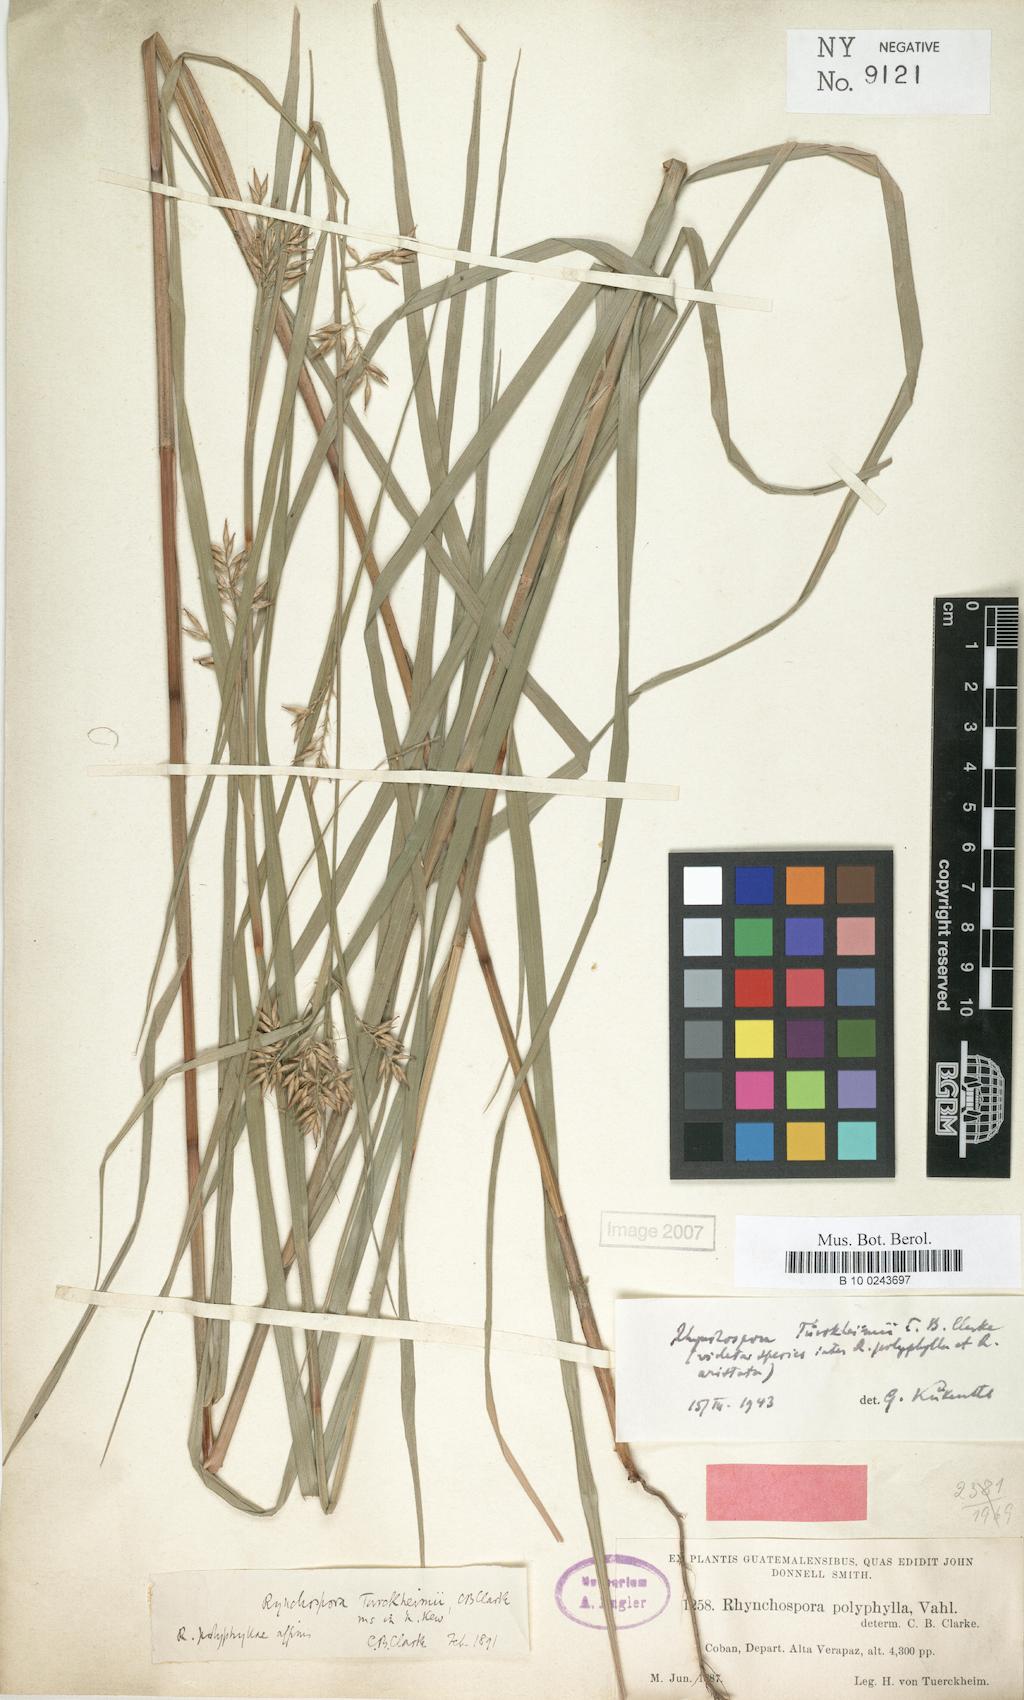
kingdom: Plantae
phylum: Tracheophyta
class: Liliopsida
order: Poales
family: Cyperaceae
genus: Rhynchospora
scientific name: Rhynchospora tuerckheimii
